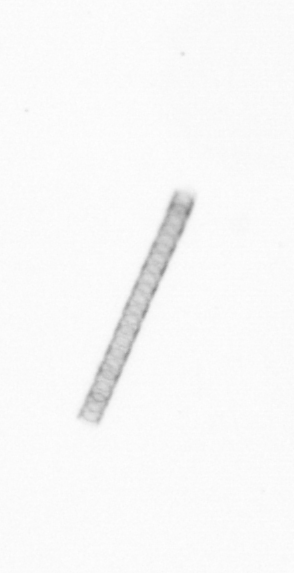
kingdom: Chromista
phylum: Ochrophyta
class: Bacillariophyceae
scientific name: Bacillariophyceae
